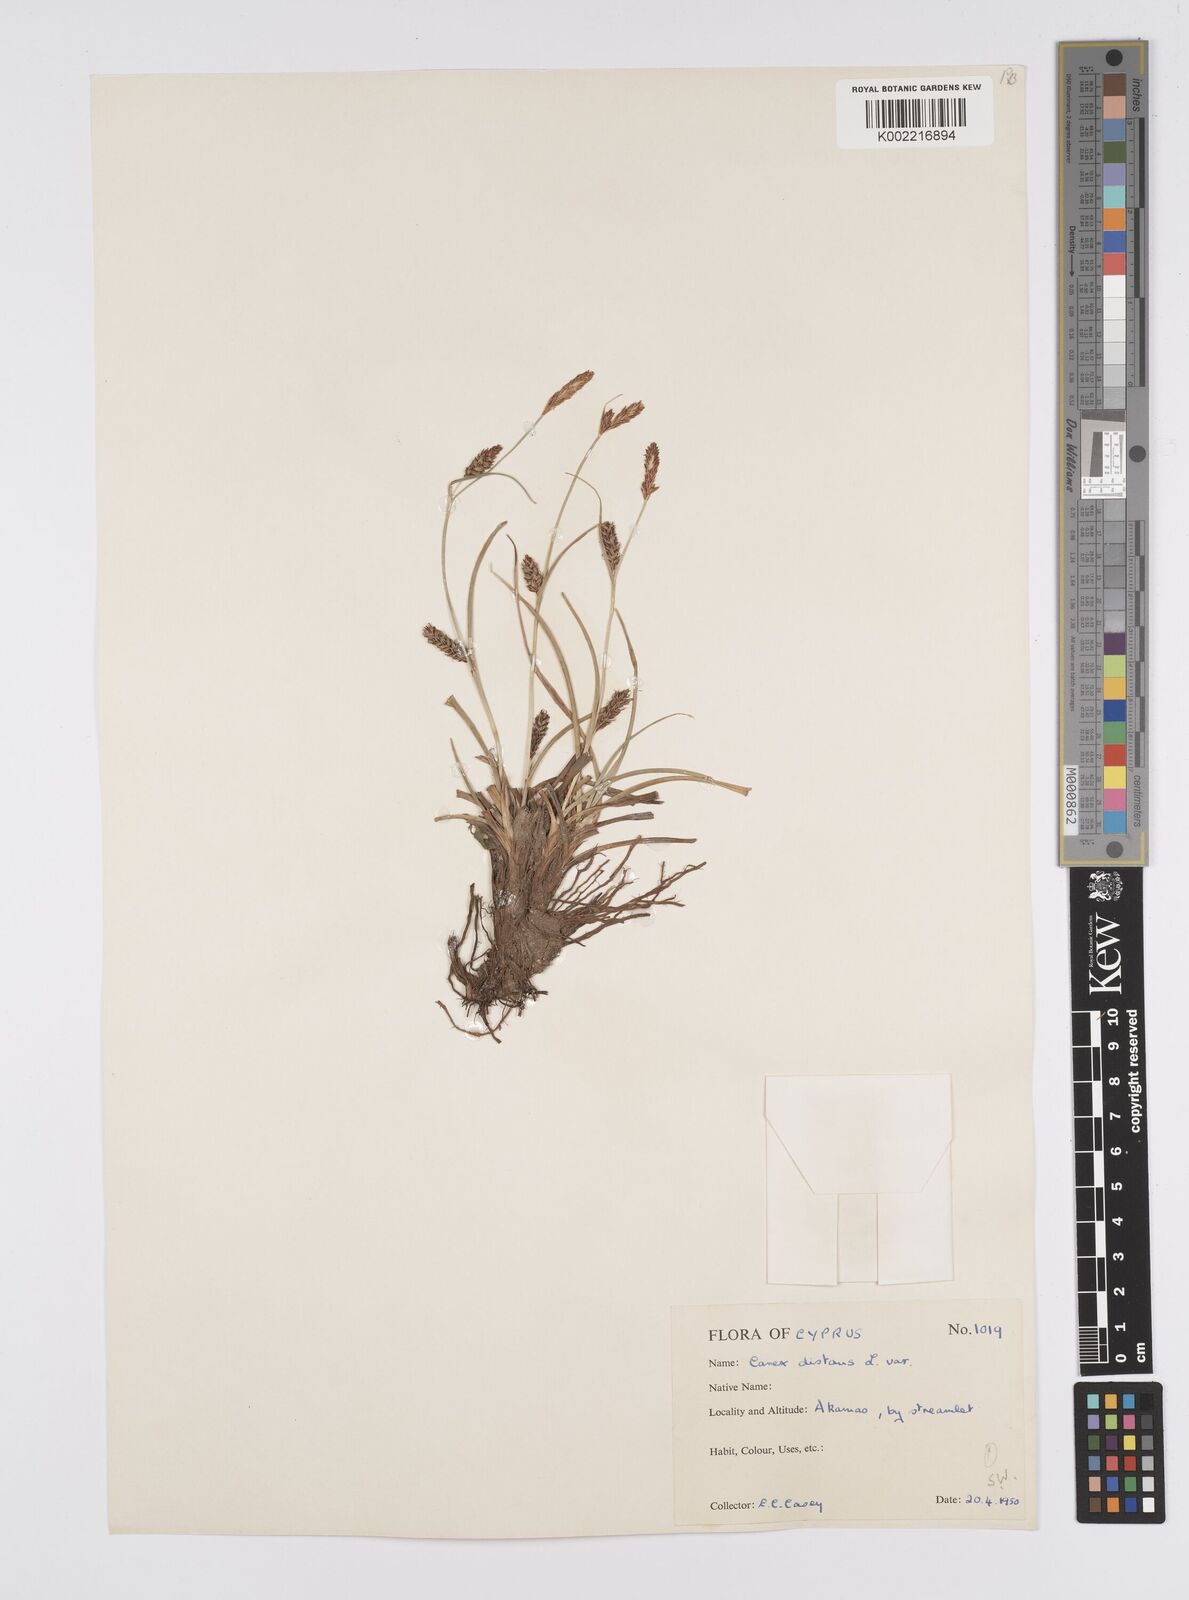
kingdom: Plantae
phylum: Tracheophyta
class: Liliopsida
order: Poales
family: Cyperaceae
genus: Carex
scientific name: Carex distans
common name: Distant sedge
